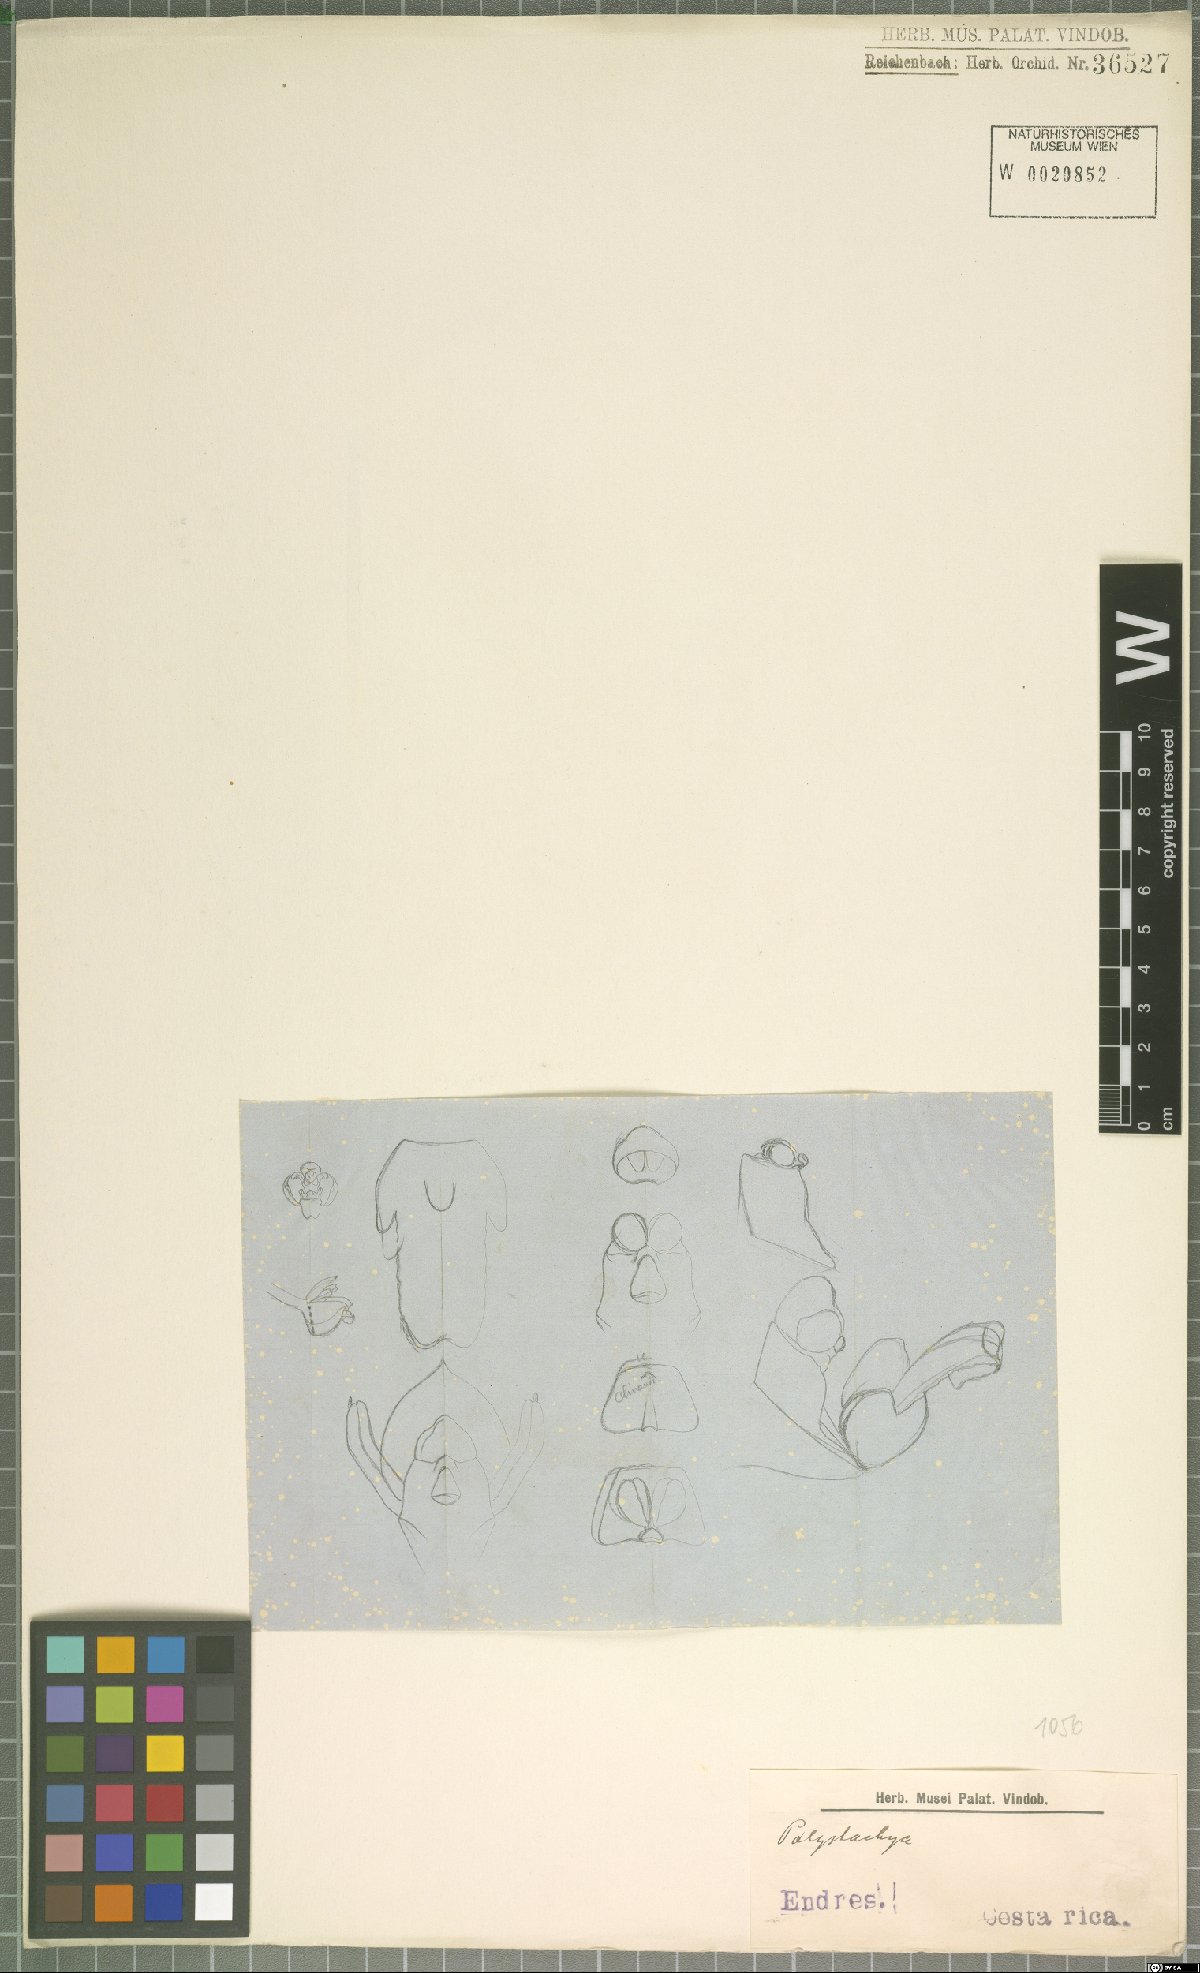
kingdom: Plantae
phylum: Tracheophyta
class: Liliopsida
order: Asparagales
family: Orchidaceae
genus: Polystachya
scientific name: Polystachya foliosa
